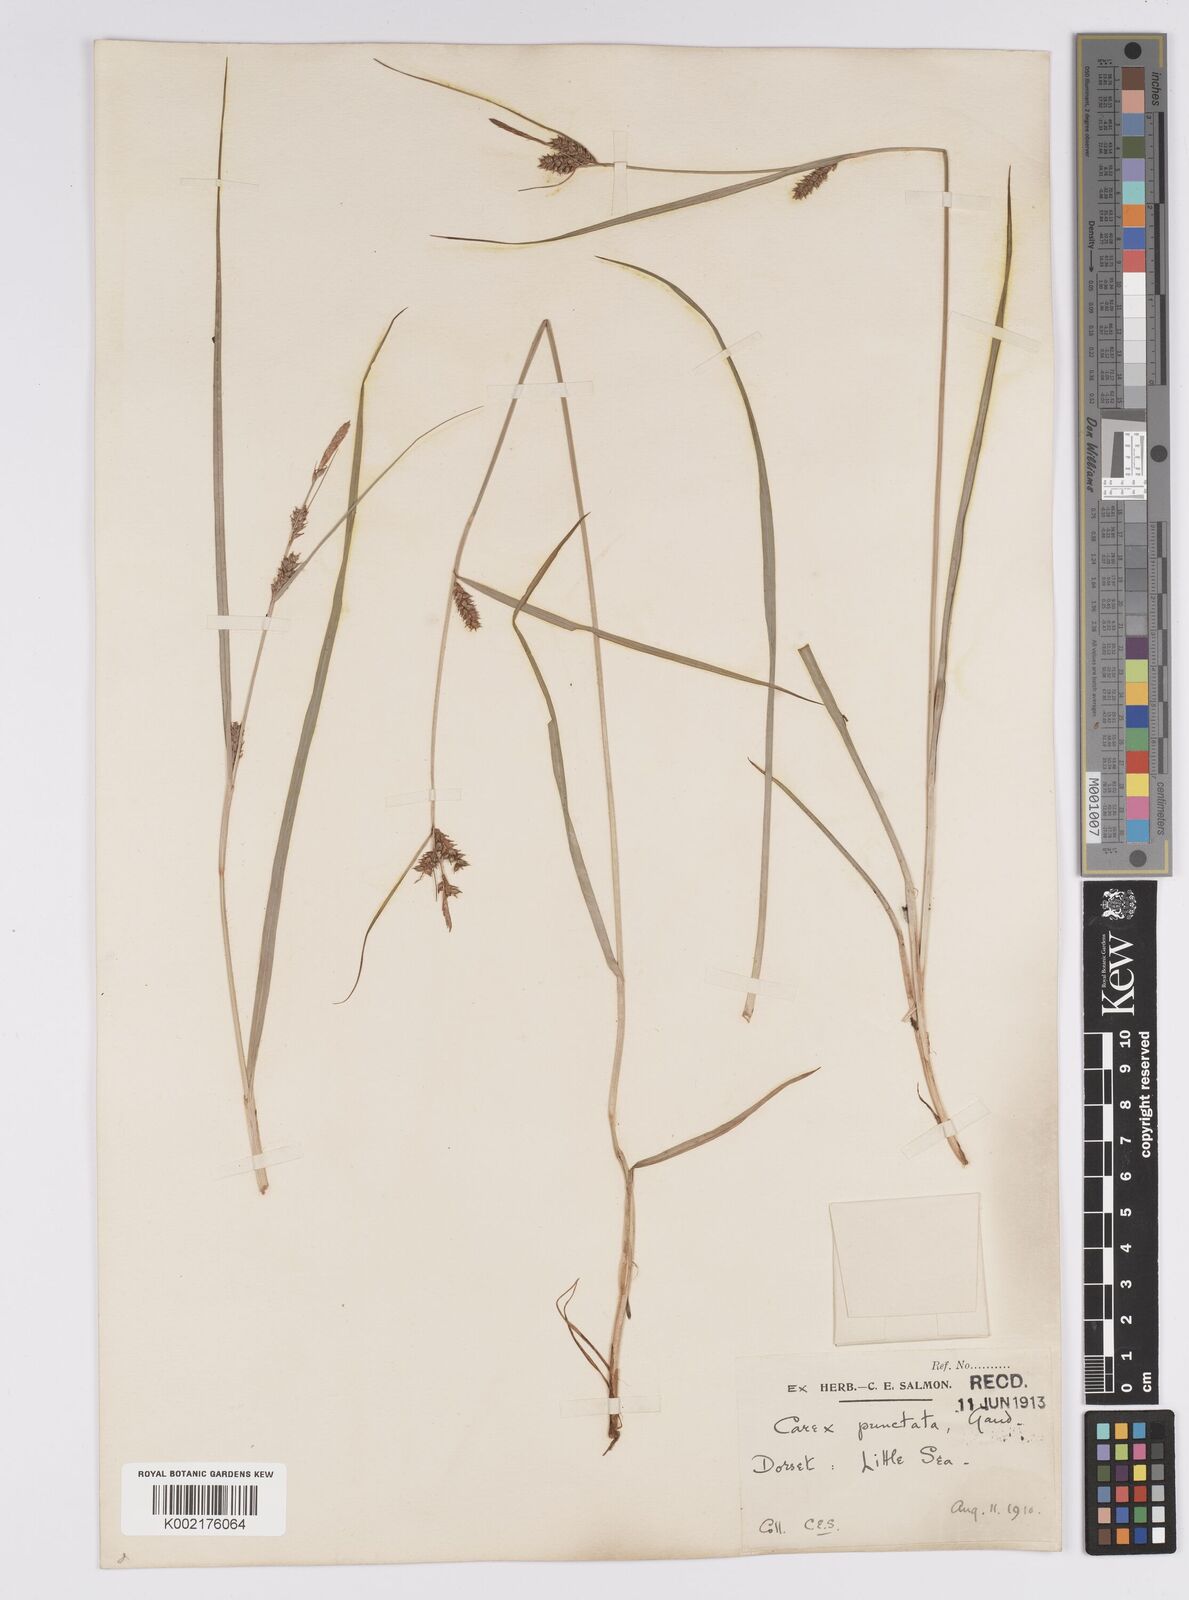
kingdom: Plantae
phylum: Tracheophyta
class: Liliopsida
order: Poales
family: Cyperaceae
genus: Carex
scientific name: Carex punctata
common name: Dotted sedge
